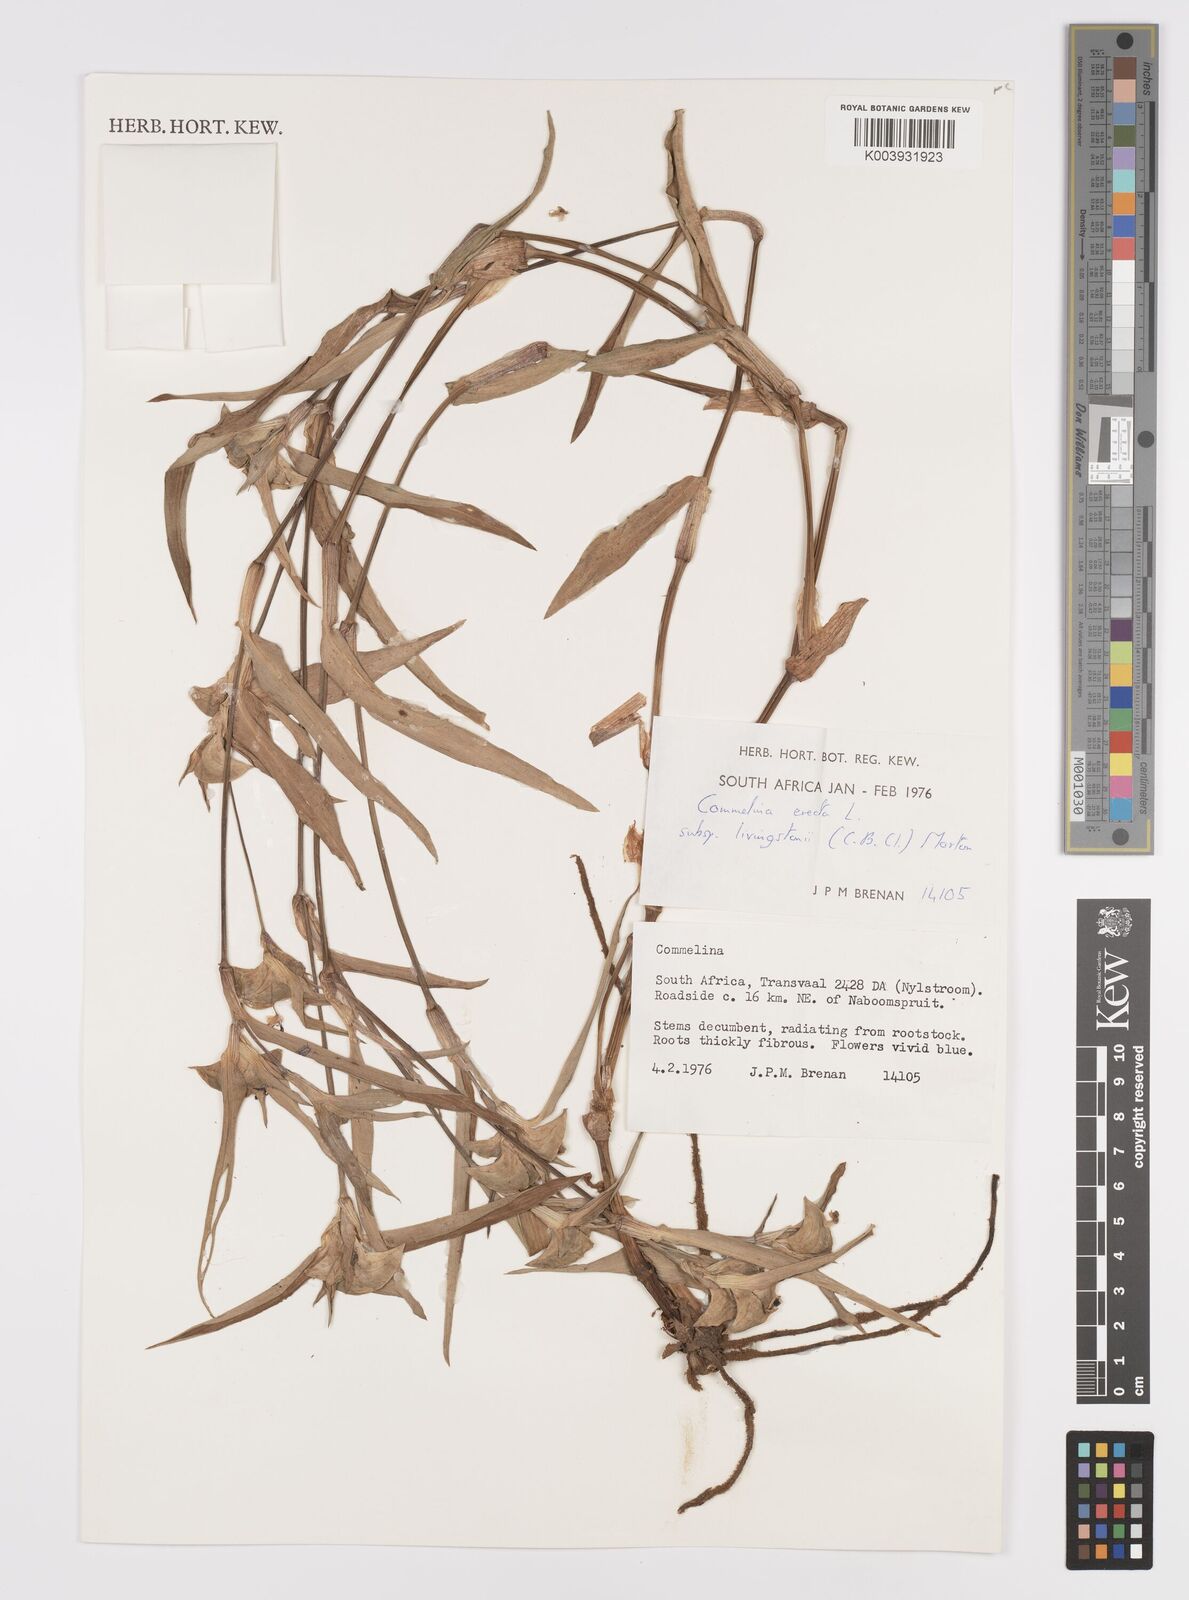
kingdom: Plantae
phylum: Tracheophyta
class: Liliopsida
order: Commelinales
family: Commelinaceae
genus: Commelina
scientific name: Commelina erecta
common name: Blousel blommetjie
